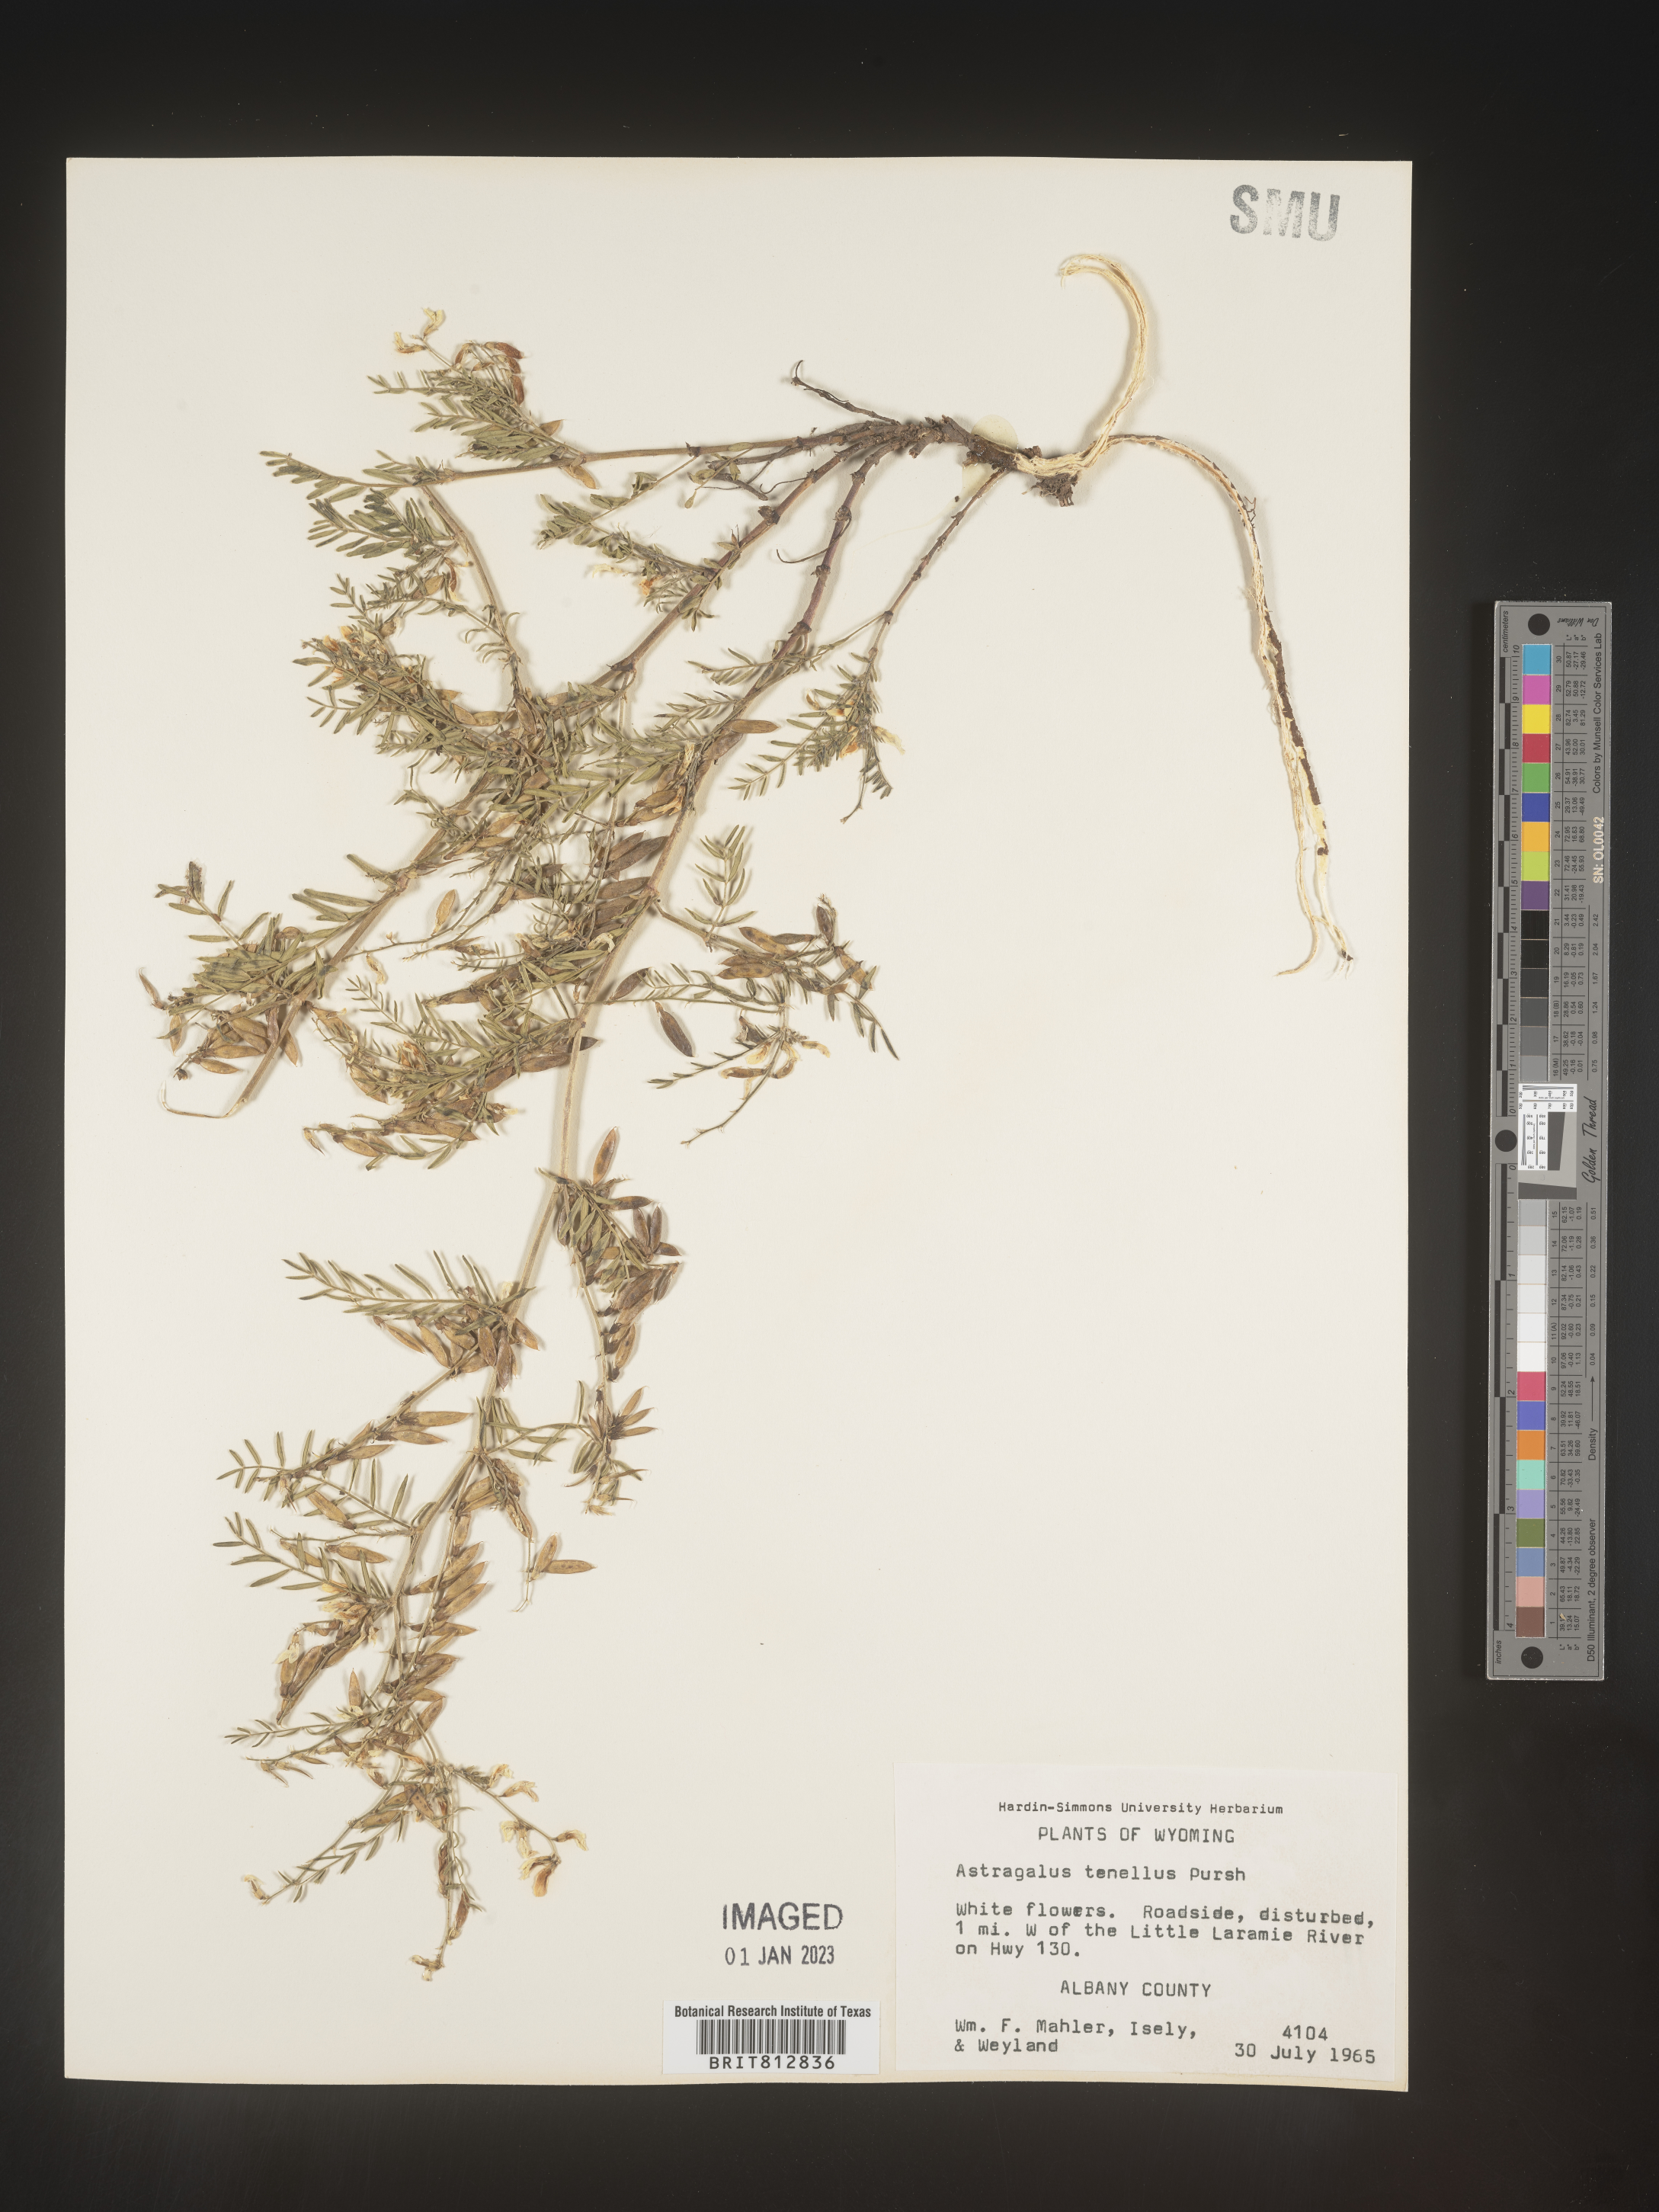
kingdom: Plantae
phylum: Tracheophyta
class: Magnoliopsida
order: Fabales
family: Fabaceae
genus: Astragalus
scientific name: Astragalus tenellus
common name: Pulse milk-vetch
